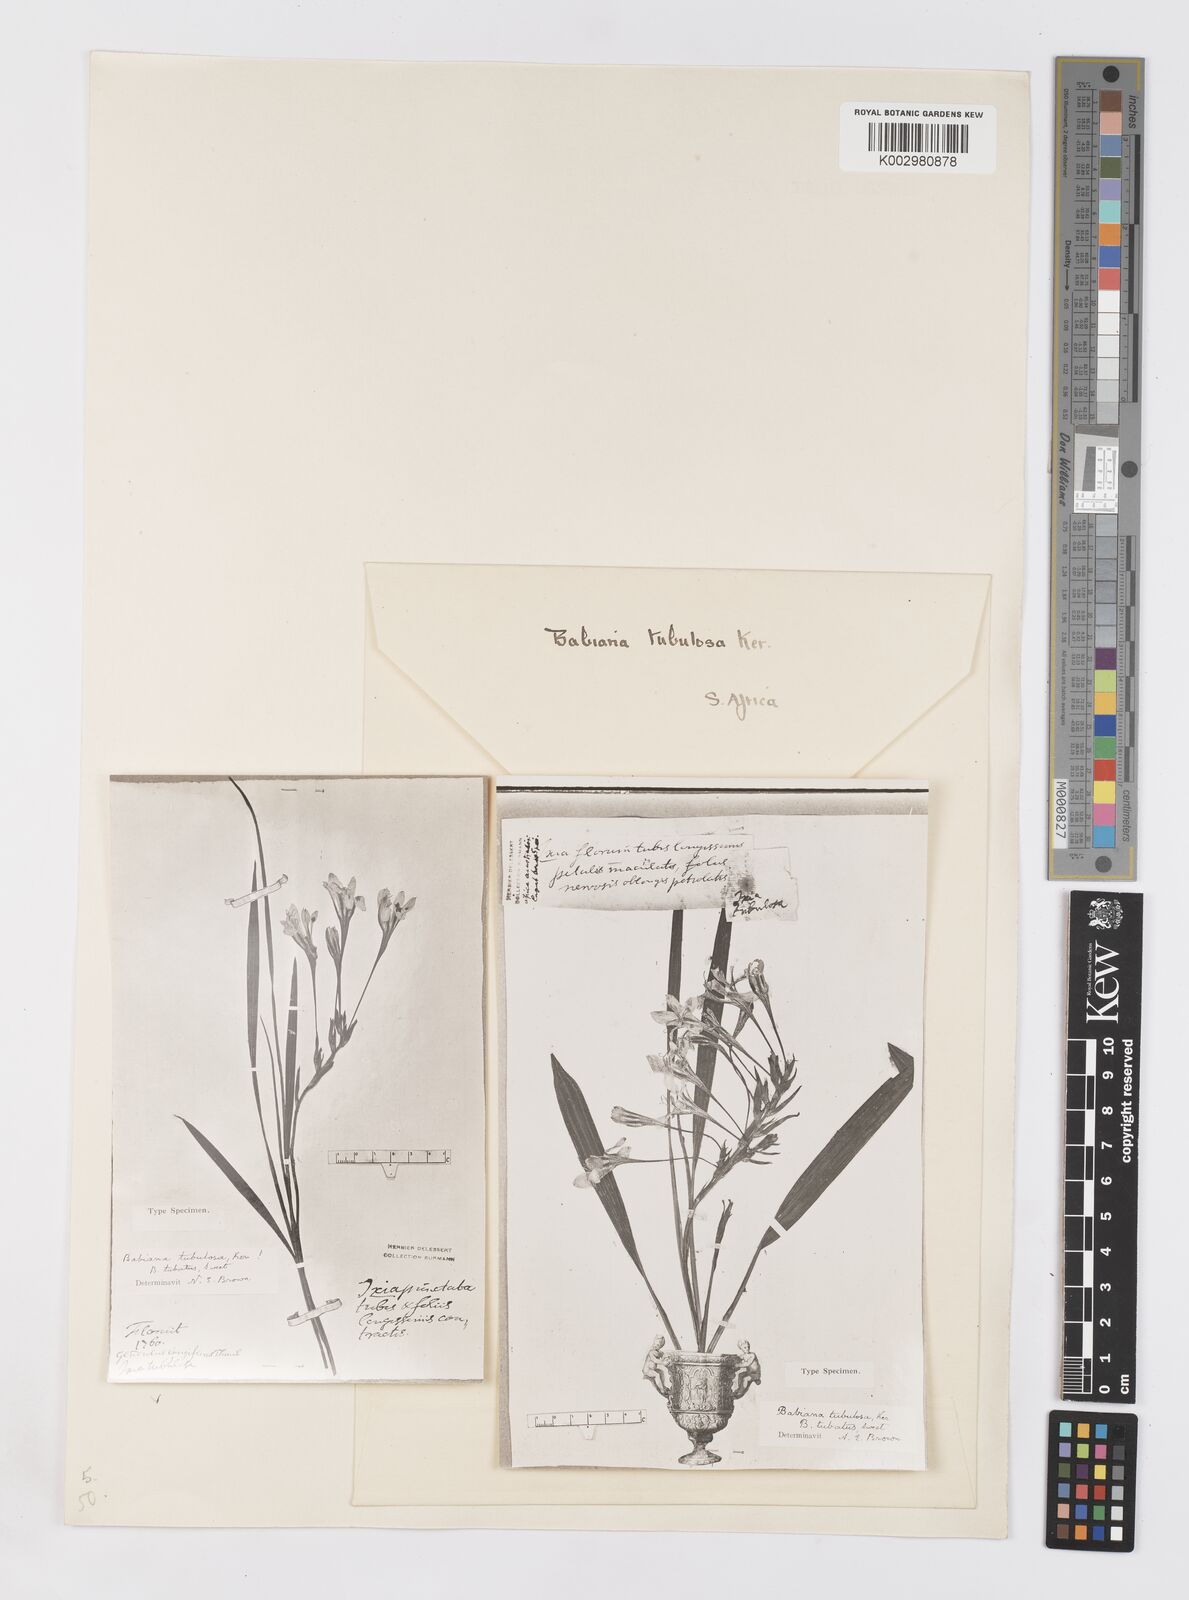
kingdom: Plantae
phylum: Tracheophyta
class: Liliopsida
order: Asparagales
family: Iridaceae
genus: Babiana
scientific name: Babiana tubulosa
